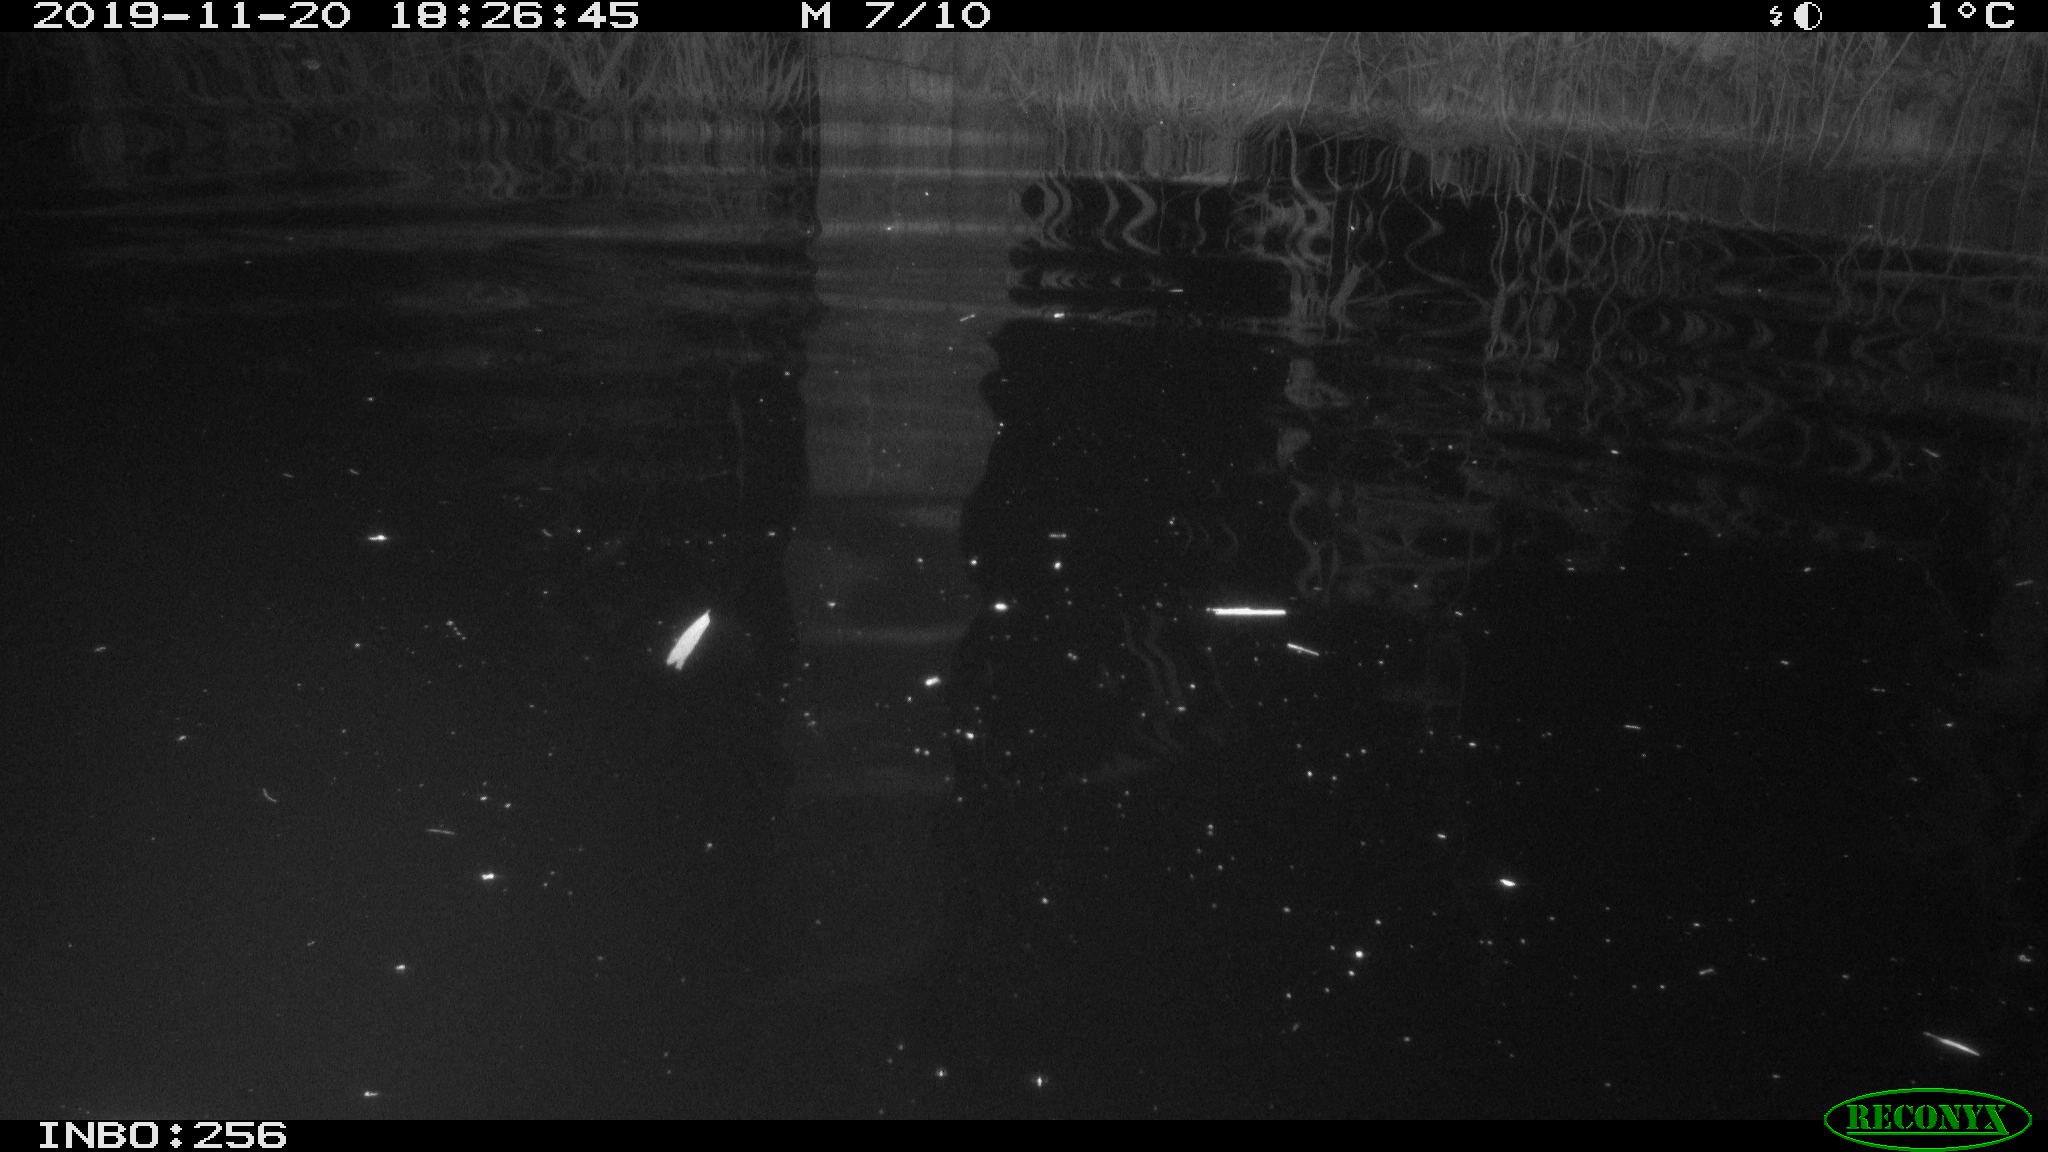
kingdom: Animalia
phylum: Chordata
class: Mammalia
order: Rodentia
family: Muridae
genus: Rattus
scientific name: Rattus norvegicus
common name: Brown rat
